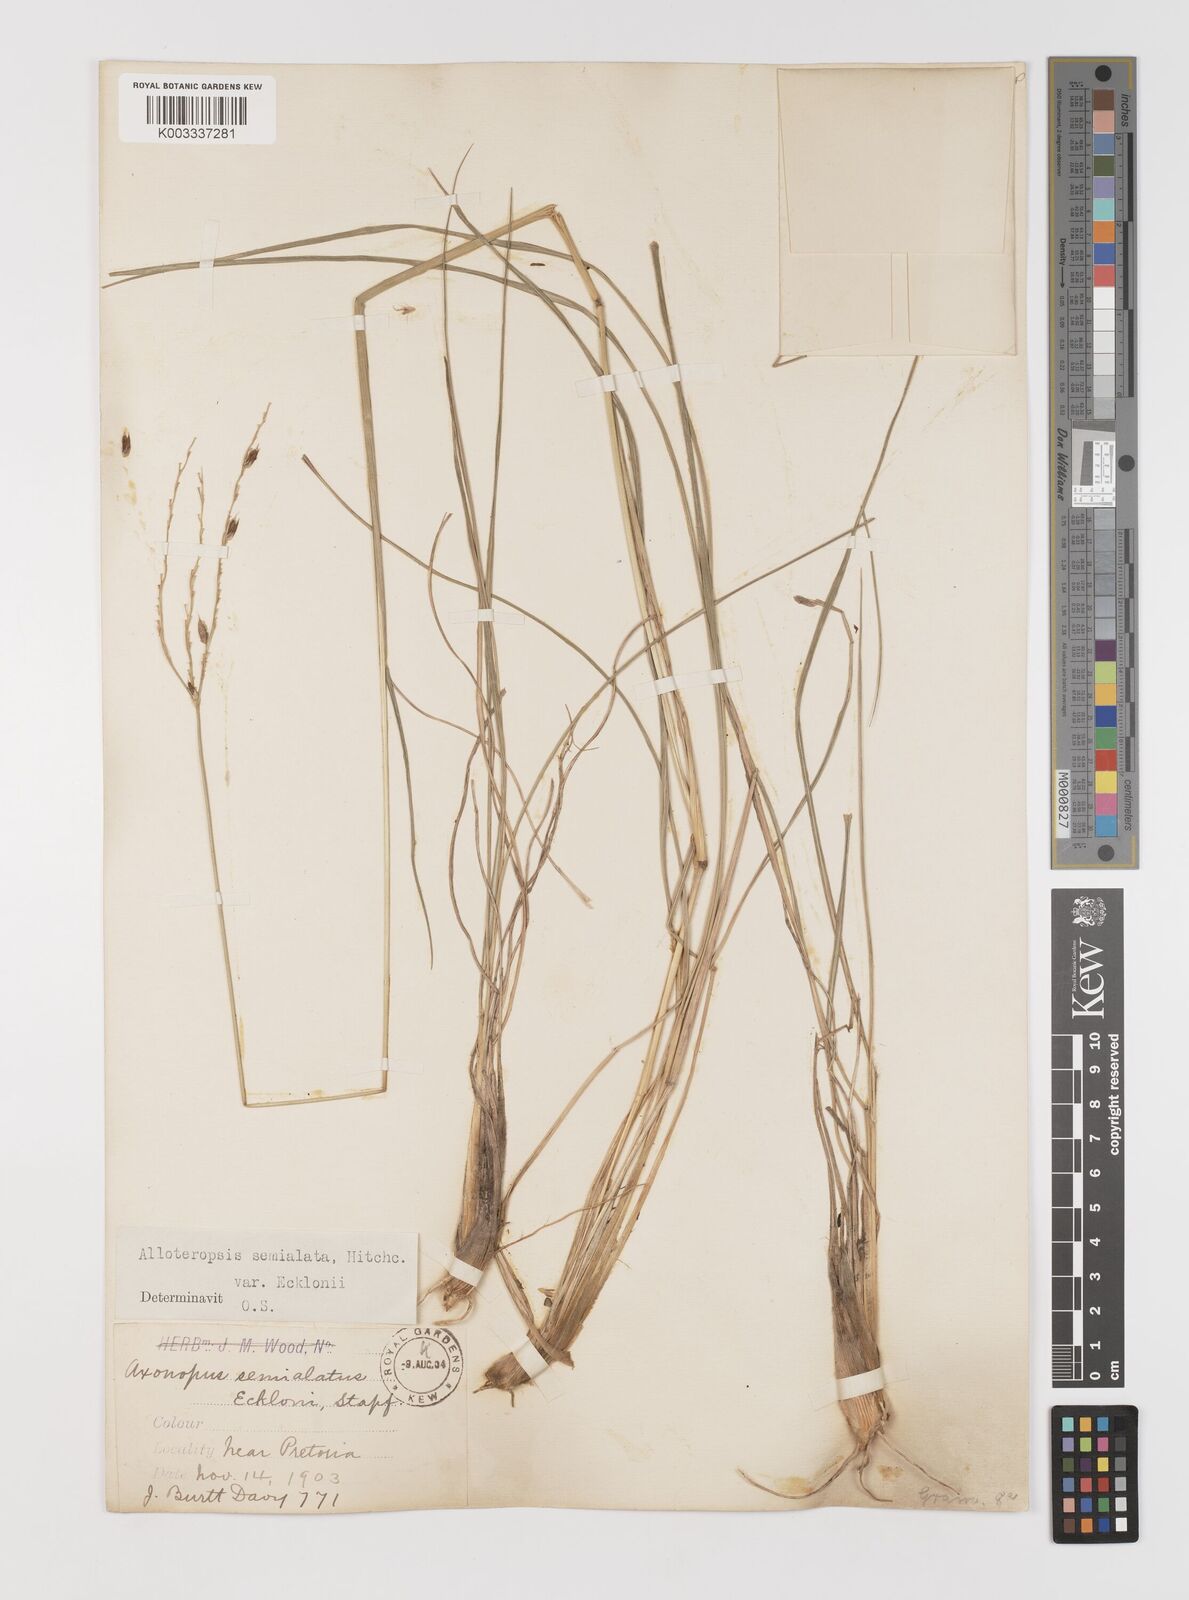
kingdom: Plantae
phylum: Tracheophyta
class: Liliopsida
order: Poales
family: Poaceae
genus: Alloteropsis
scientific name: Alloteropsis semialata
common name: Cockatoo grass
